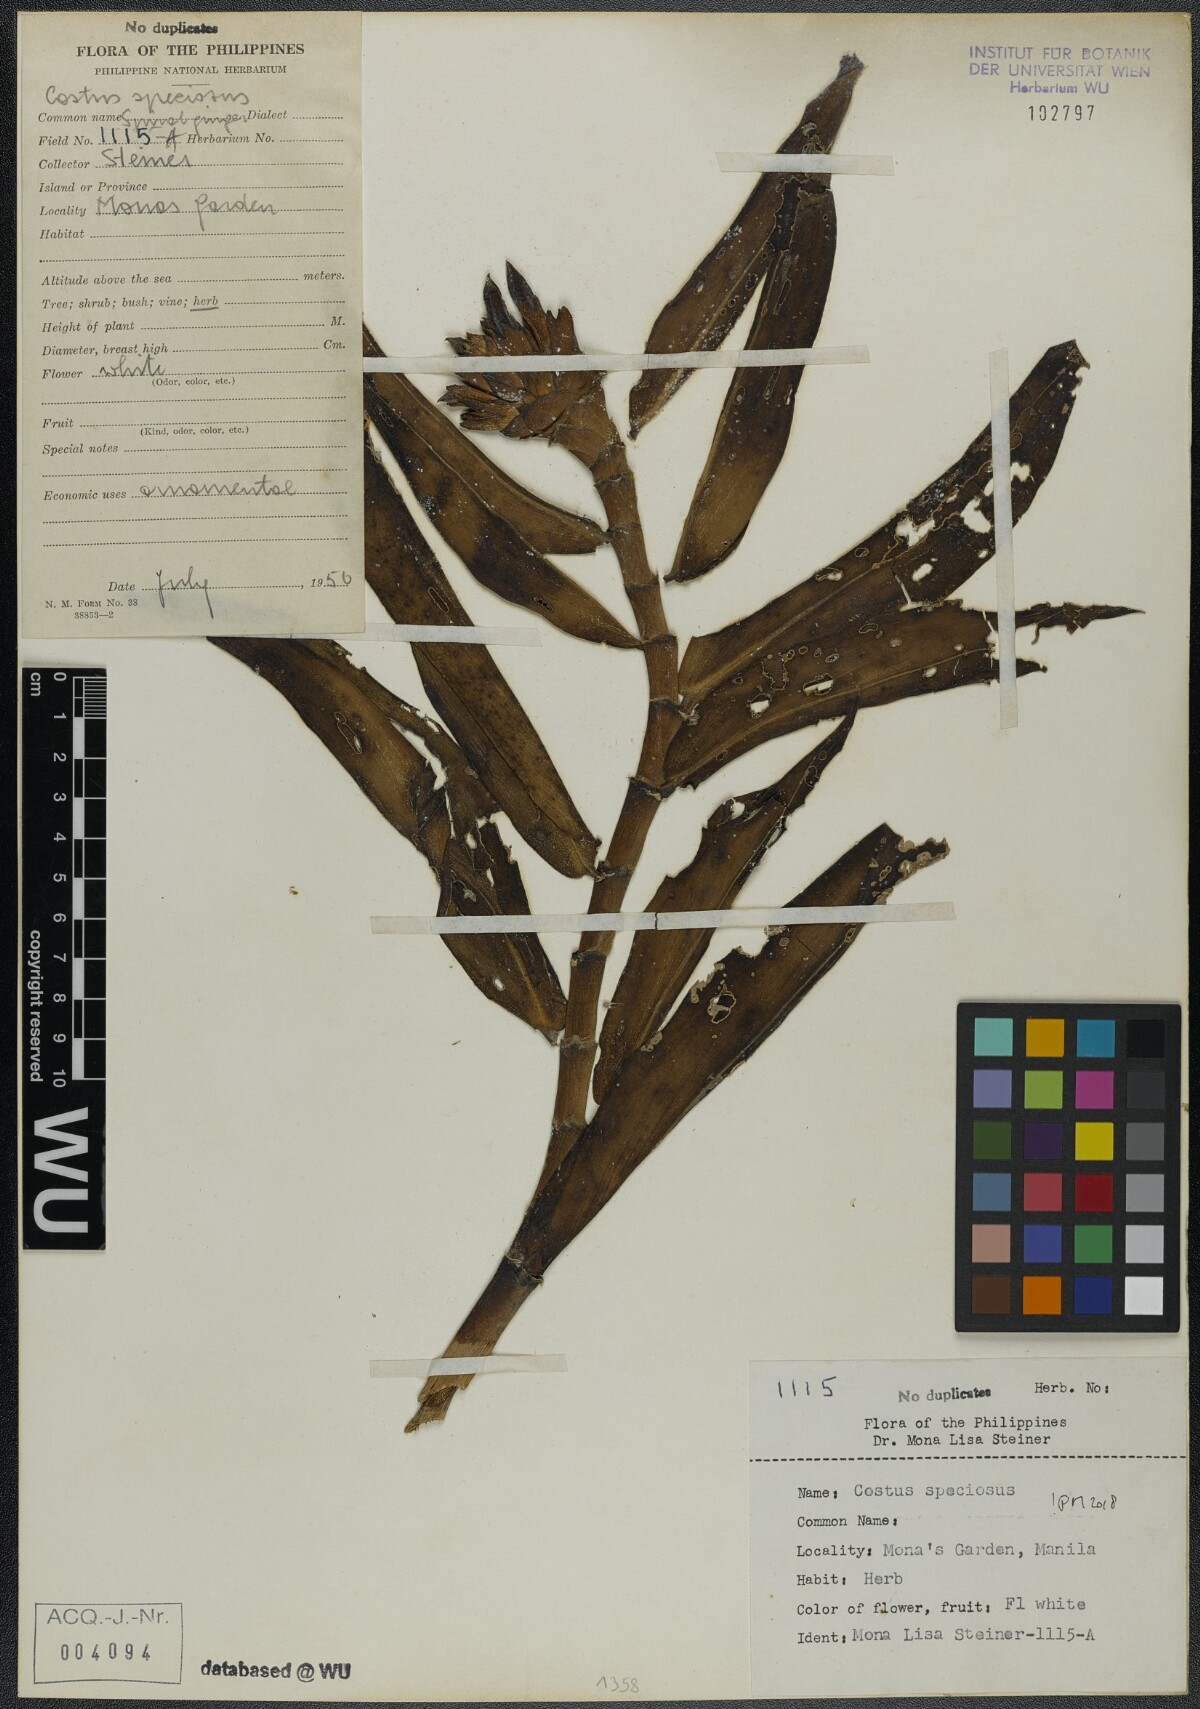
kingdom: Plantae
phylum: Tracheophyta
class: Liliopsida
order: Zingiberales
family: Costaceae
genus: Hellenia
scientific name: Hellenia speciosa
